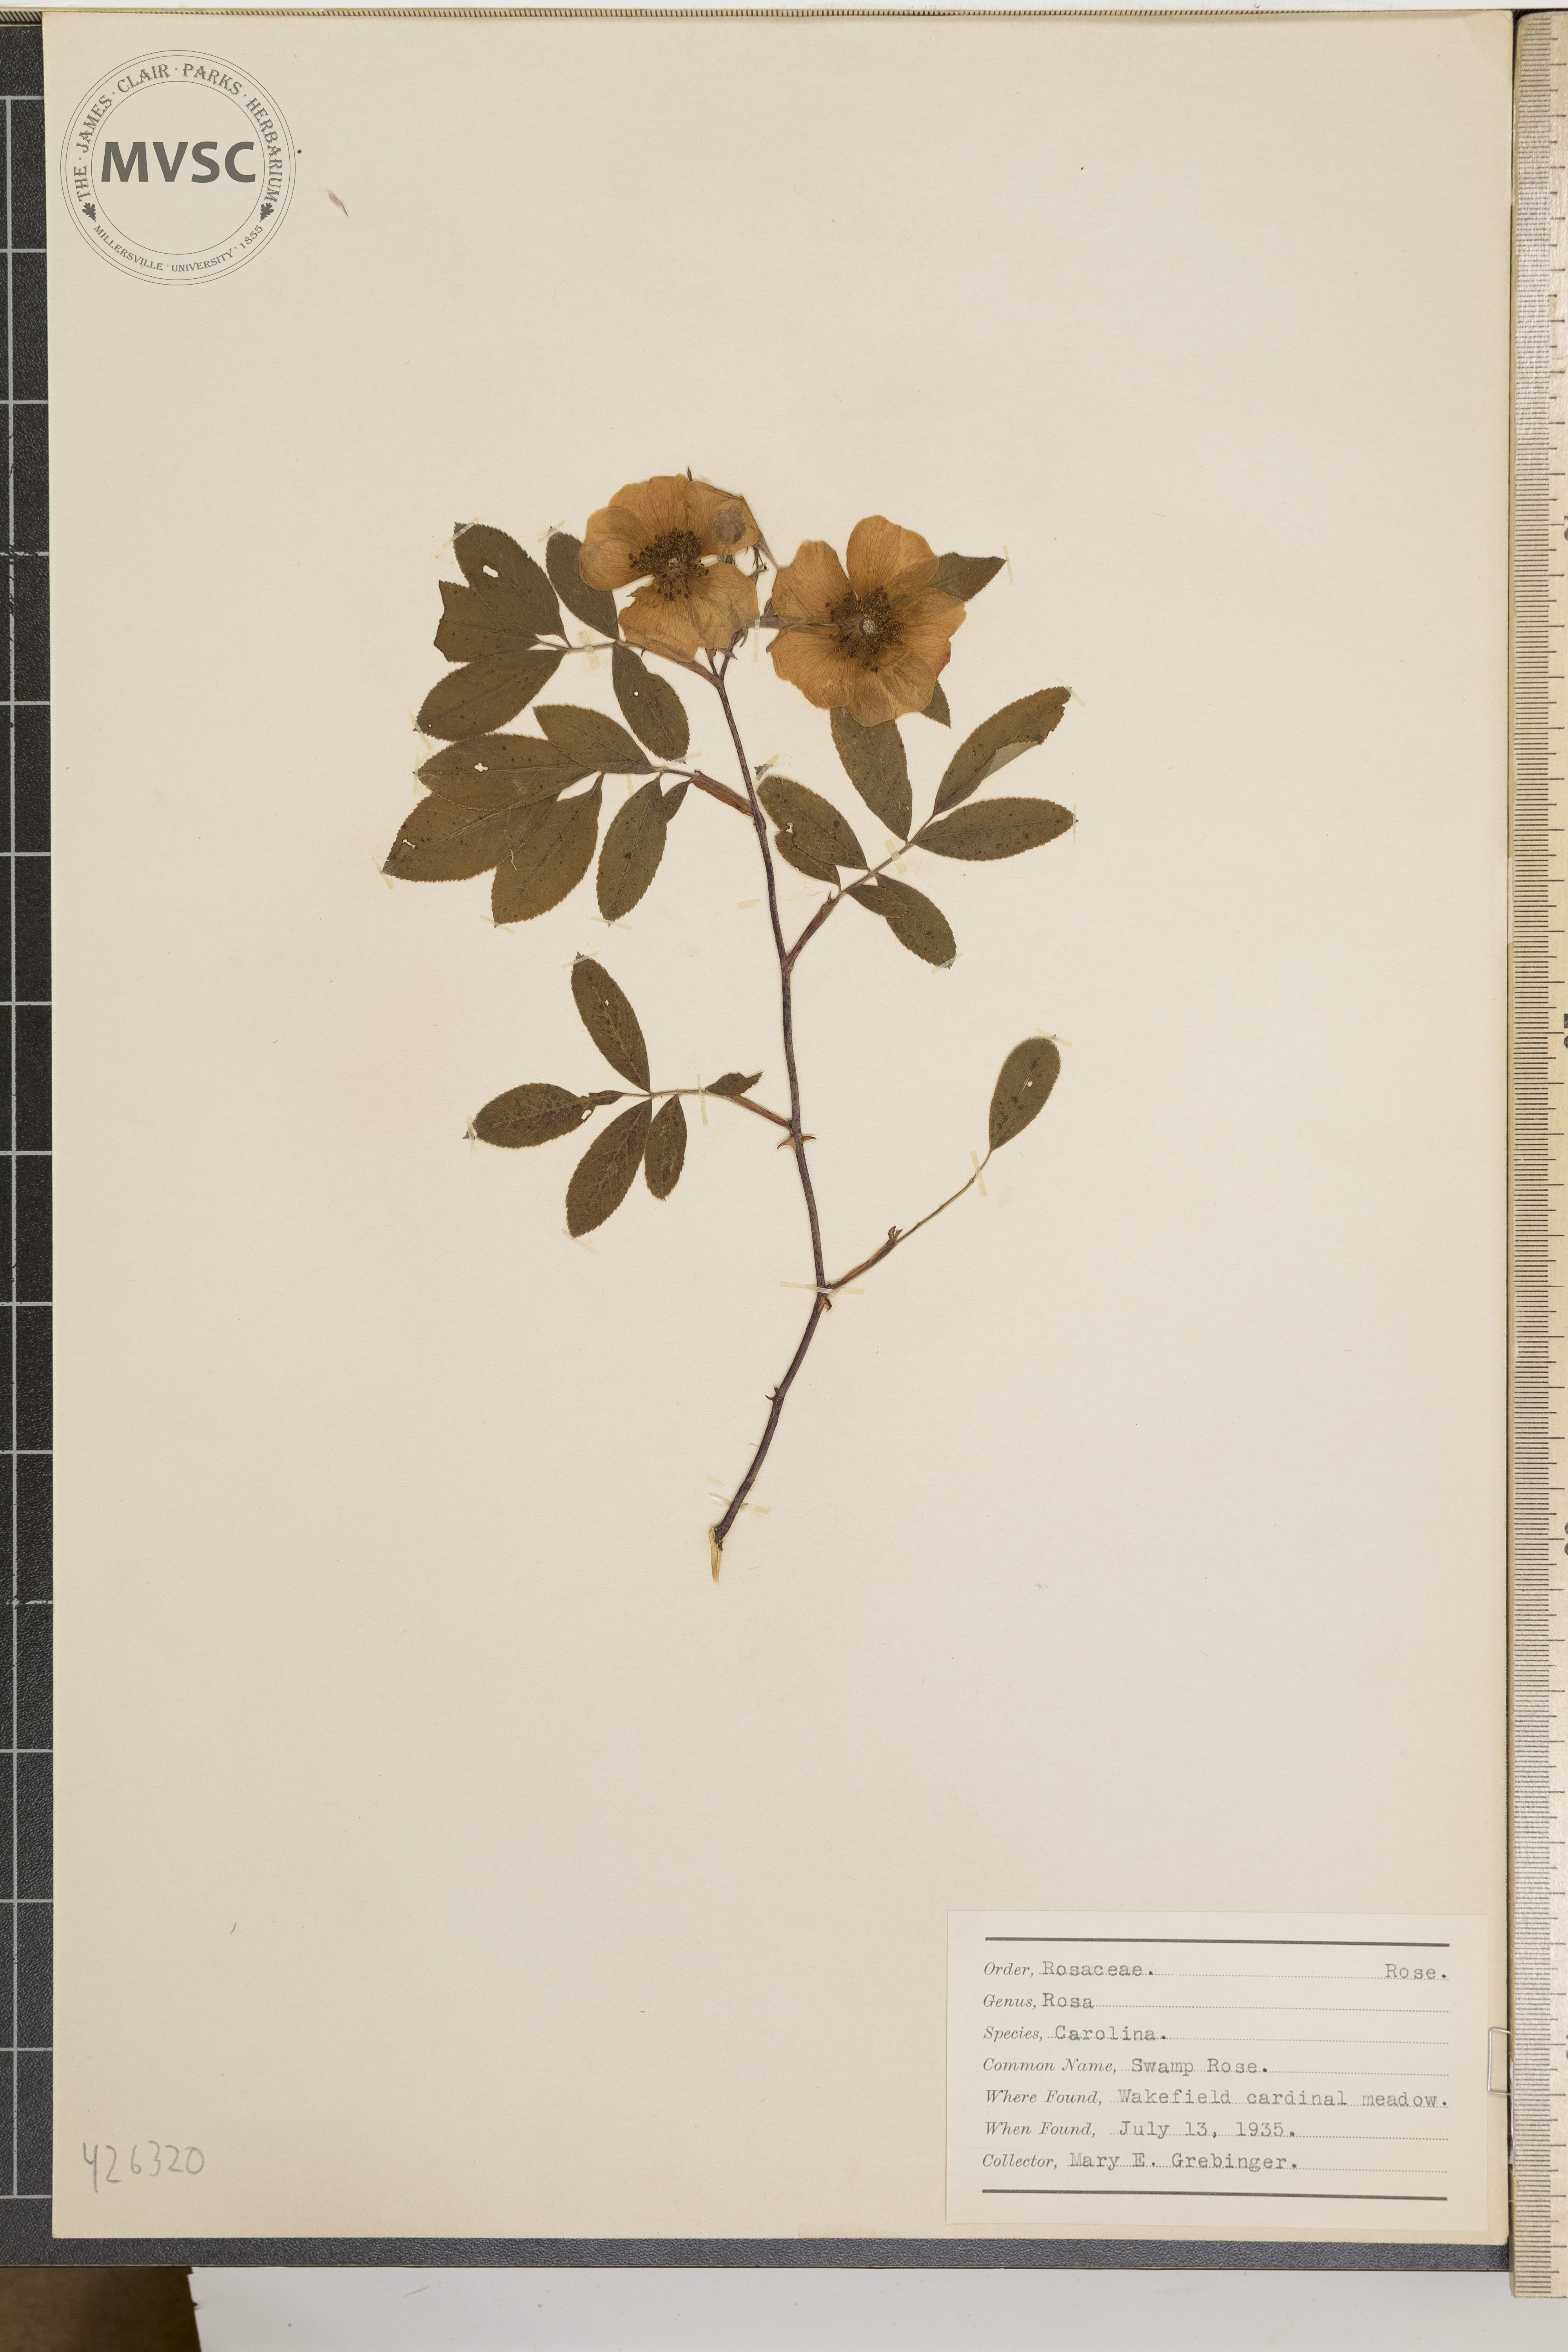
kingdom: Plantae
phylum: Tracheophyta
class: Magnoliopsida
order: Rosales
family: Rosaceae
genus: Rosa
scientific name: Rosa carolina
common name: Swamp Rose
